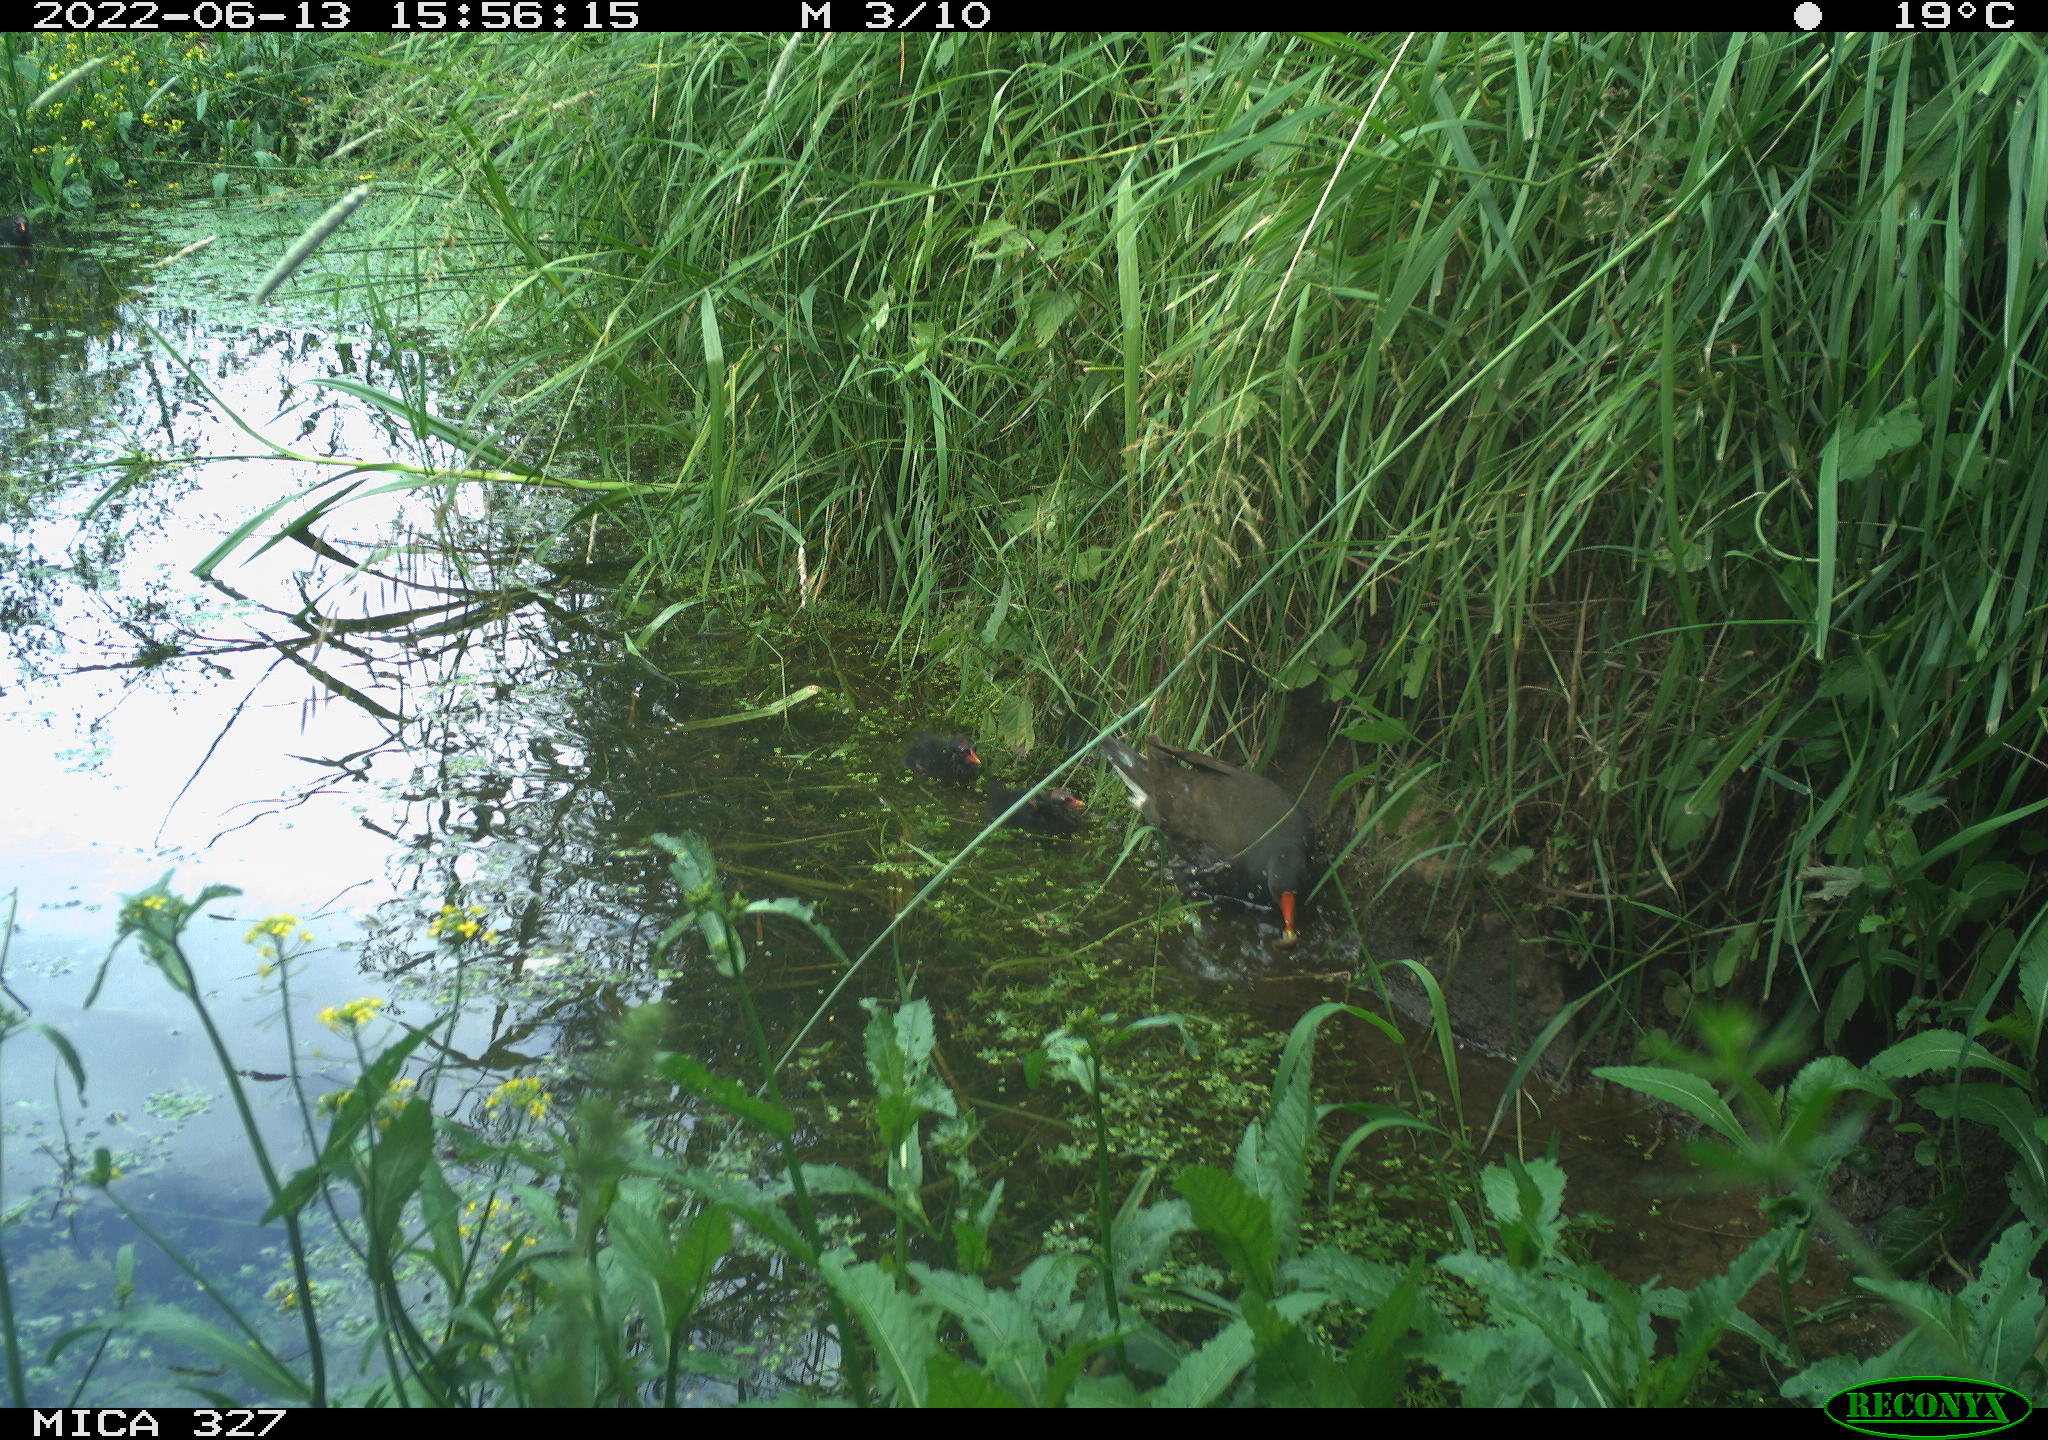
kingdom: Animalia
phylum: Chordata
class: Aves
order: Gruiformes
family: Rallidae
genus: Gallinula
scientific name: Gallinula chloropus
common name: Common moorhen
